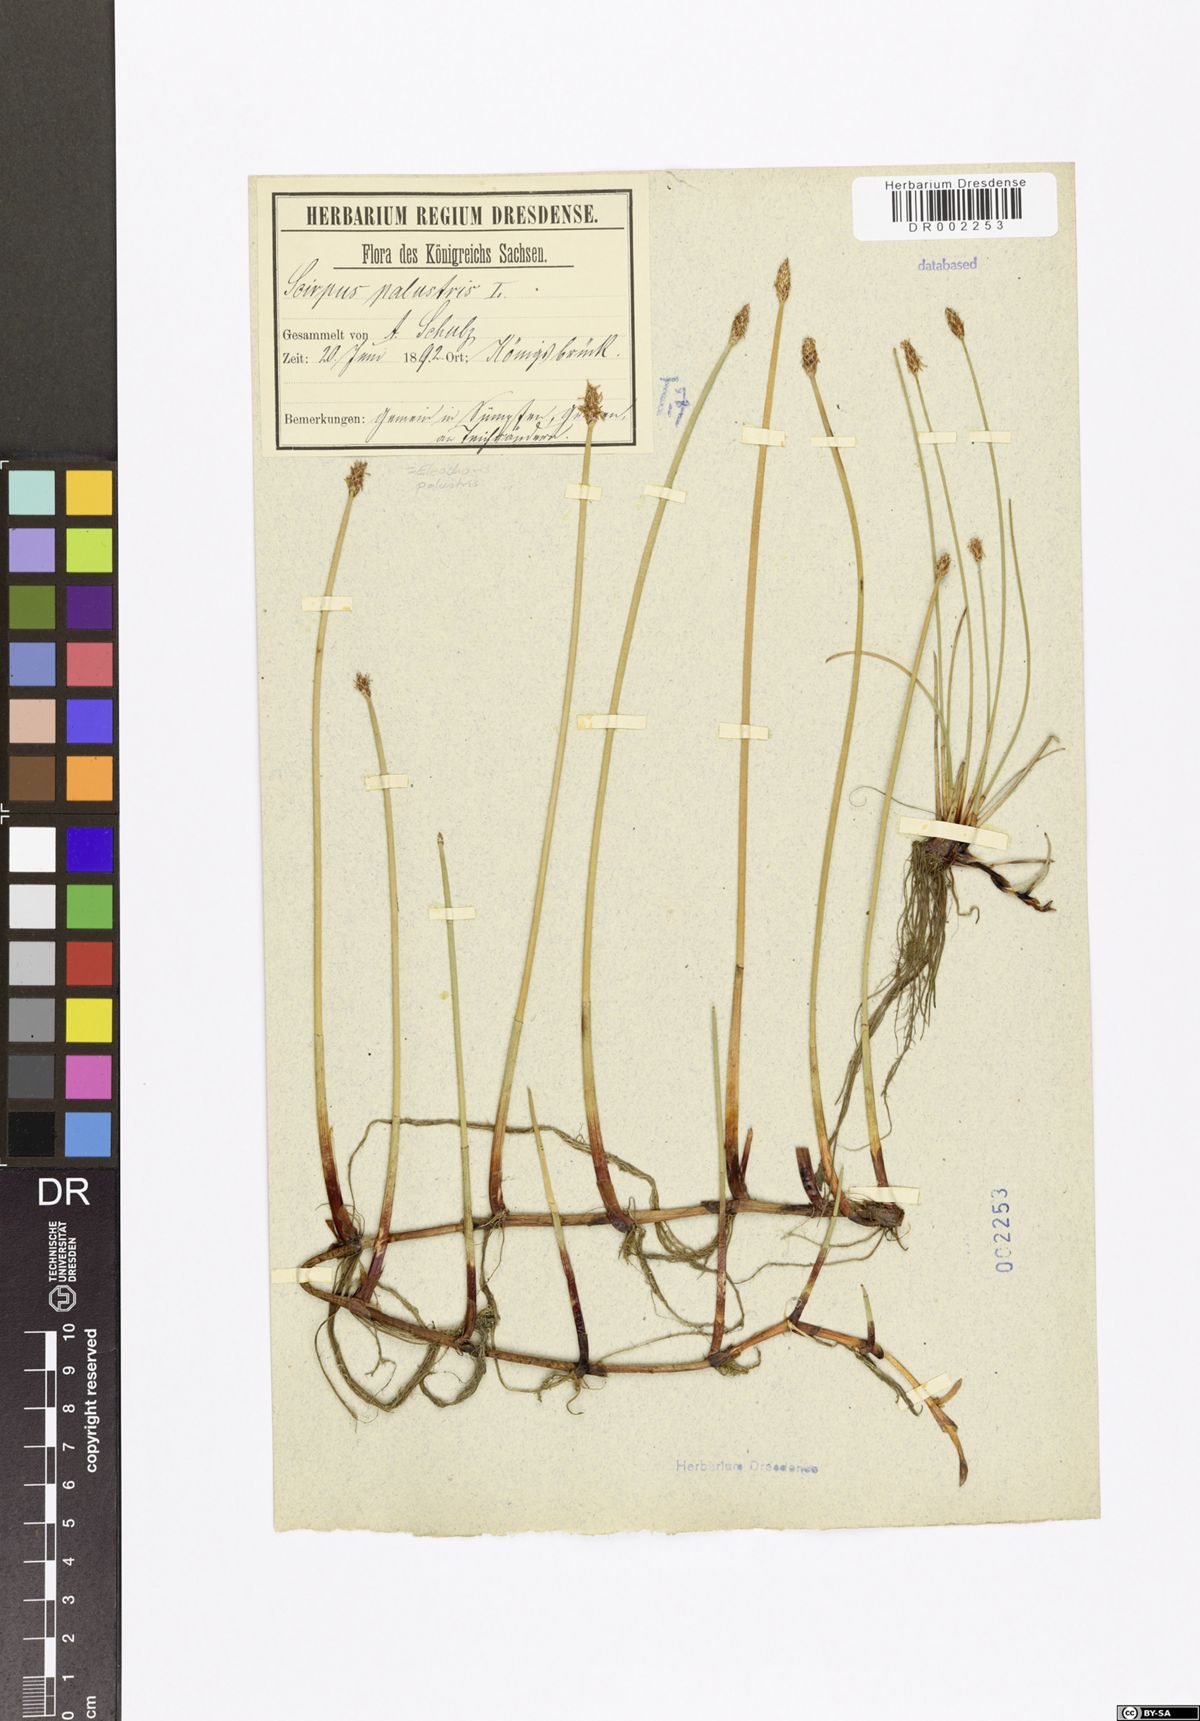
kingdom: Plantae
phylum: Tracheophyta
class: Liliopsida
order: Poales
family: Cyperaceae
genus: Eleocharis
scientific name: Eleocharis palustris
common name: Common spike-rush
